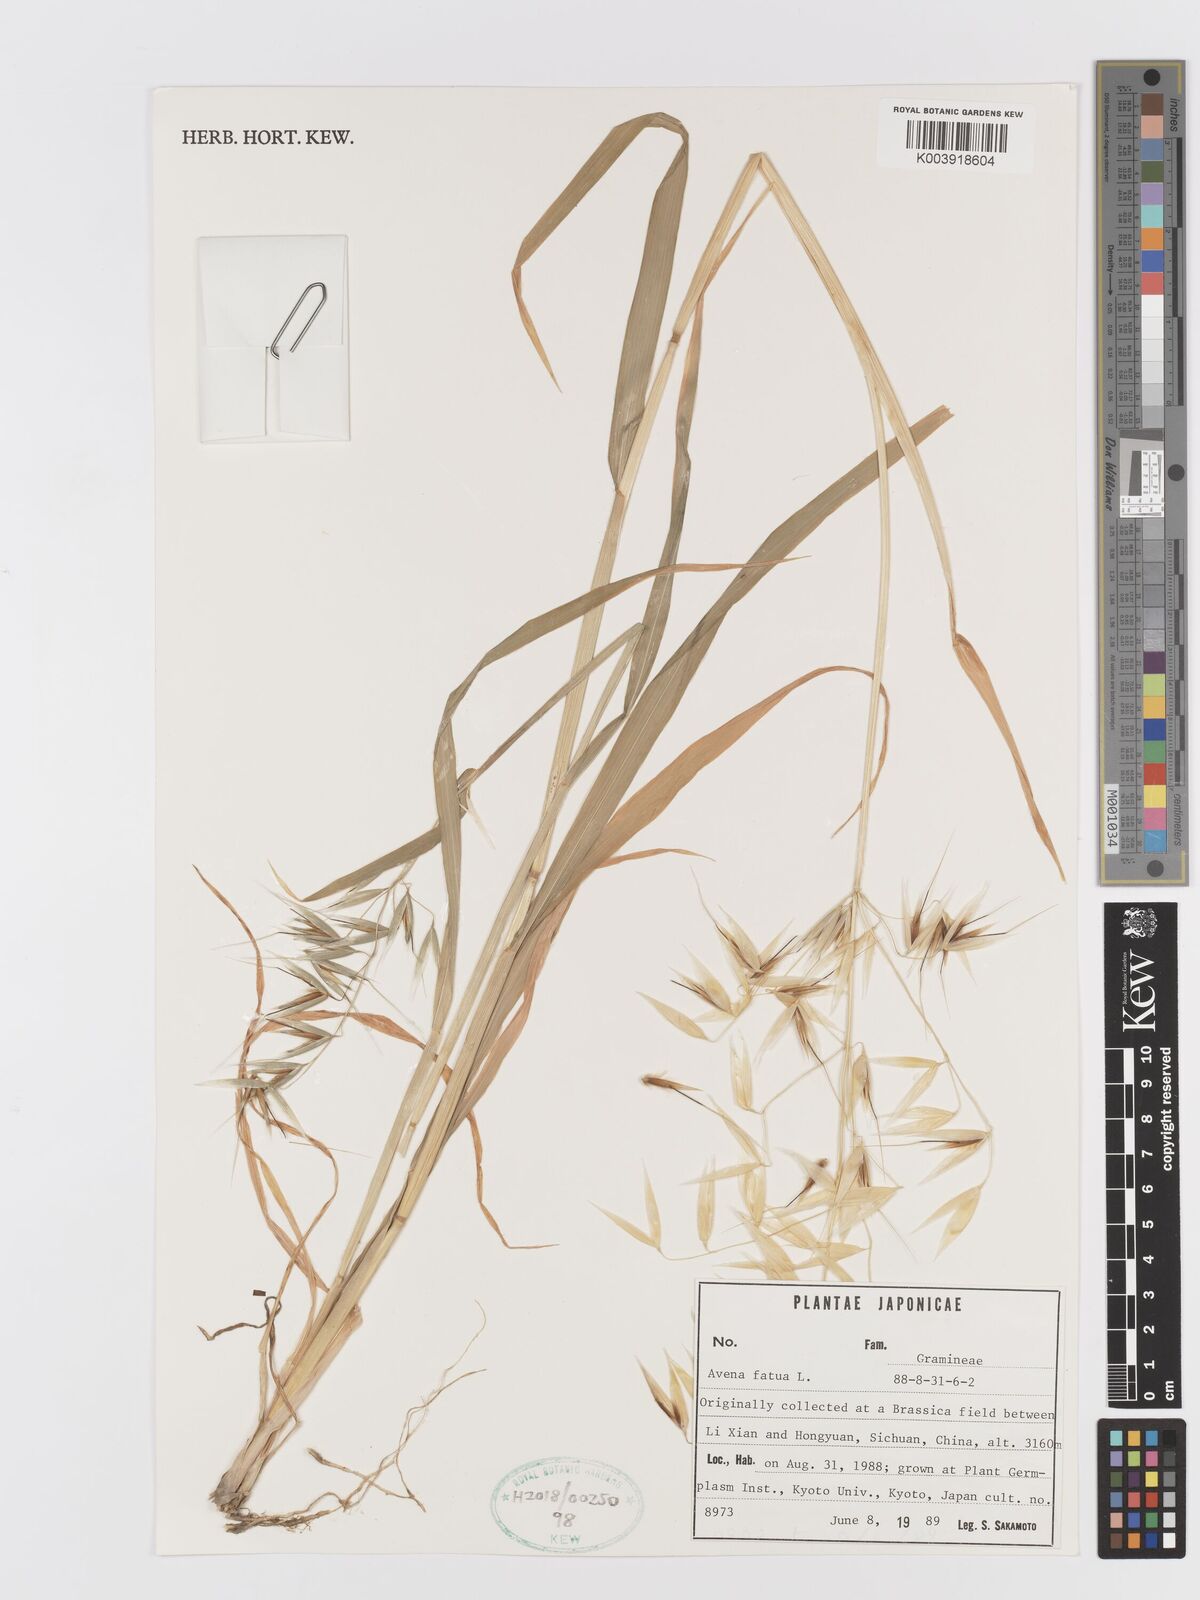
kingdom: Plantae
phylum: Tracheophyta
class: Liliopsida
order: Poales
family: Poaceae
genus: Avena
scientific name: Avena fatua
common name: Wild oat
